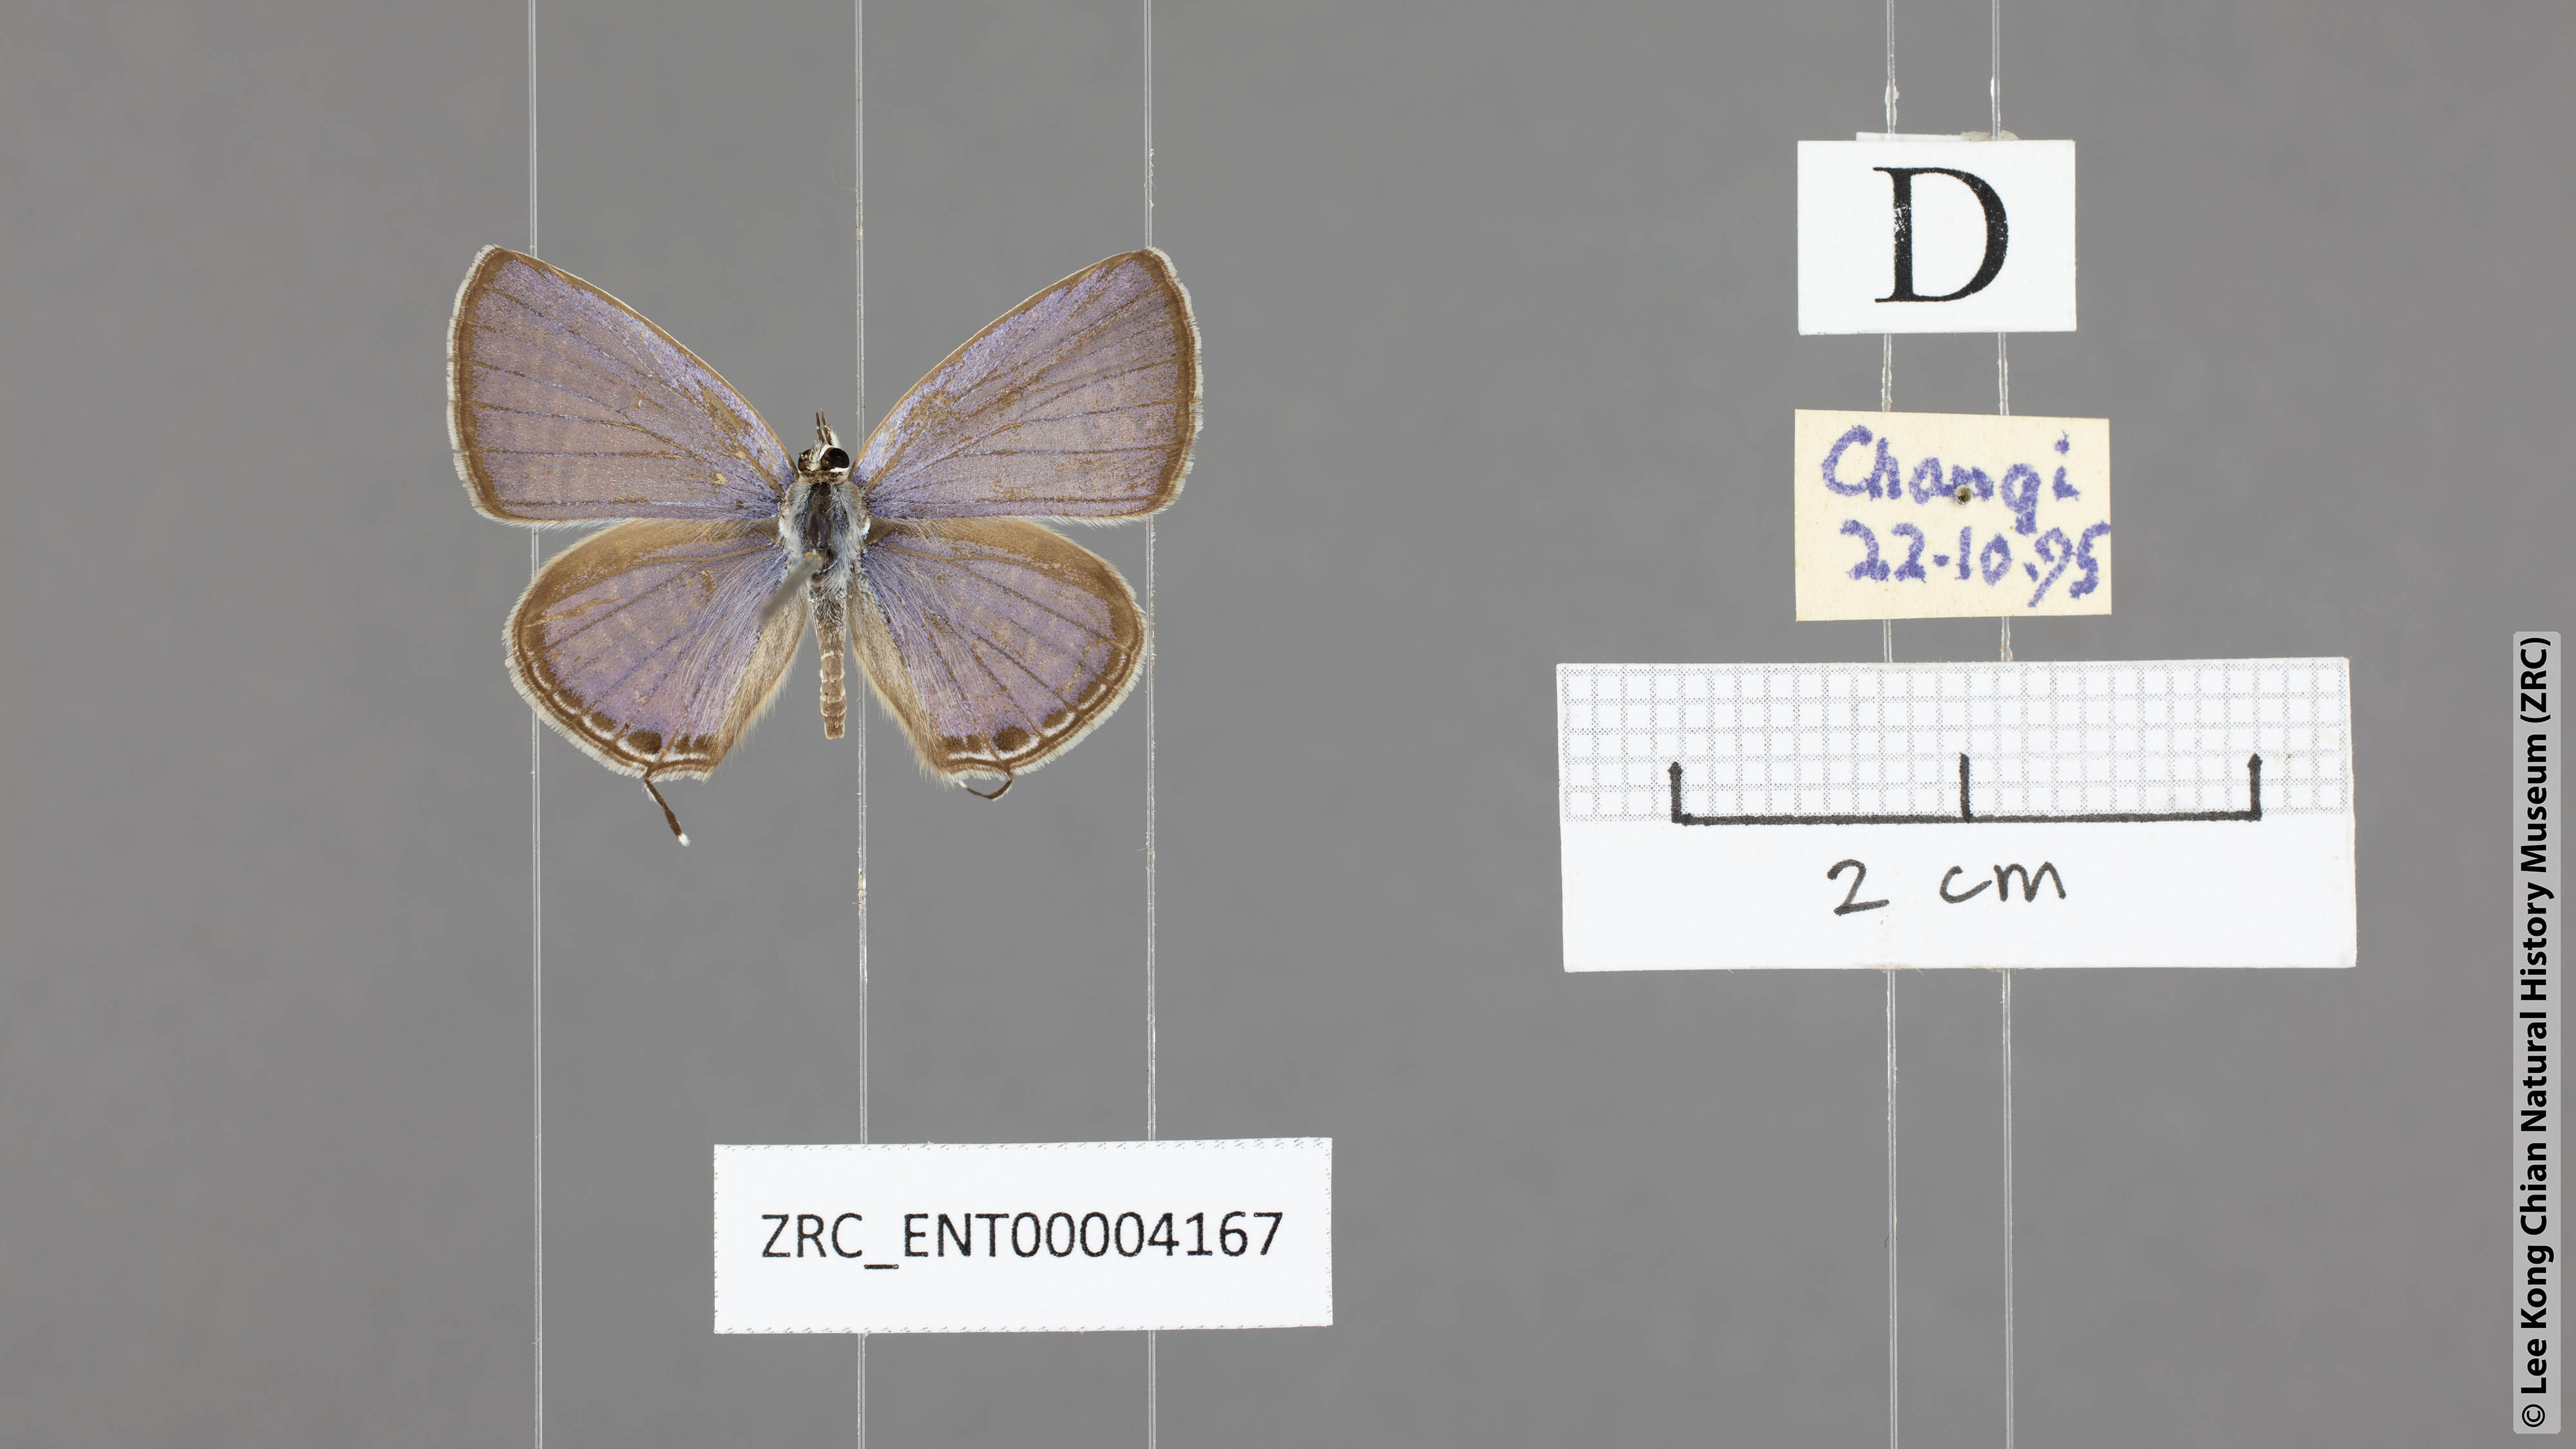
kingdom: Animalia
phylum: Arthropoda
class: Insecta
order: Lepidoptera
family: Lycaenidae
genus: Edales
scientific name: Edales pandava
